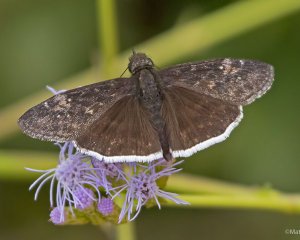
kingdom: Animalia
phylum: Arthropoda
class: Insecta
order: Lepidoptera
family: Hesperiidae
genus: Erynnis
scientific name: Erynnis funeralis
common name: Funereal Duskywing
